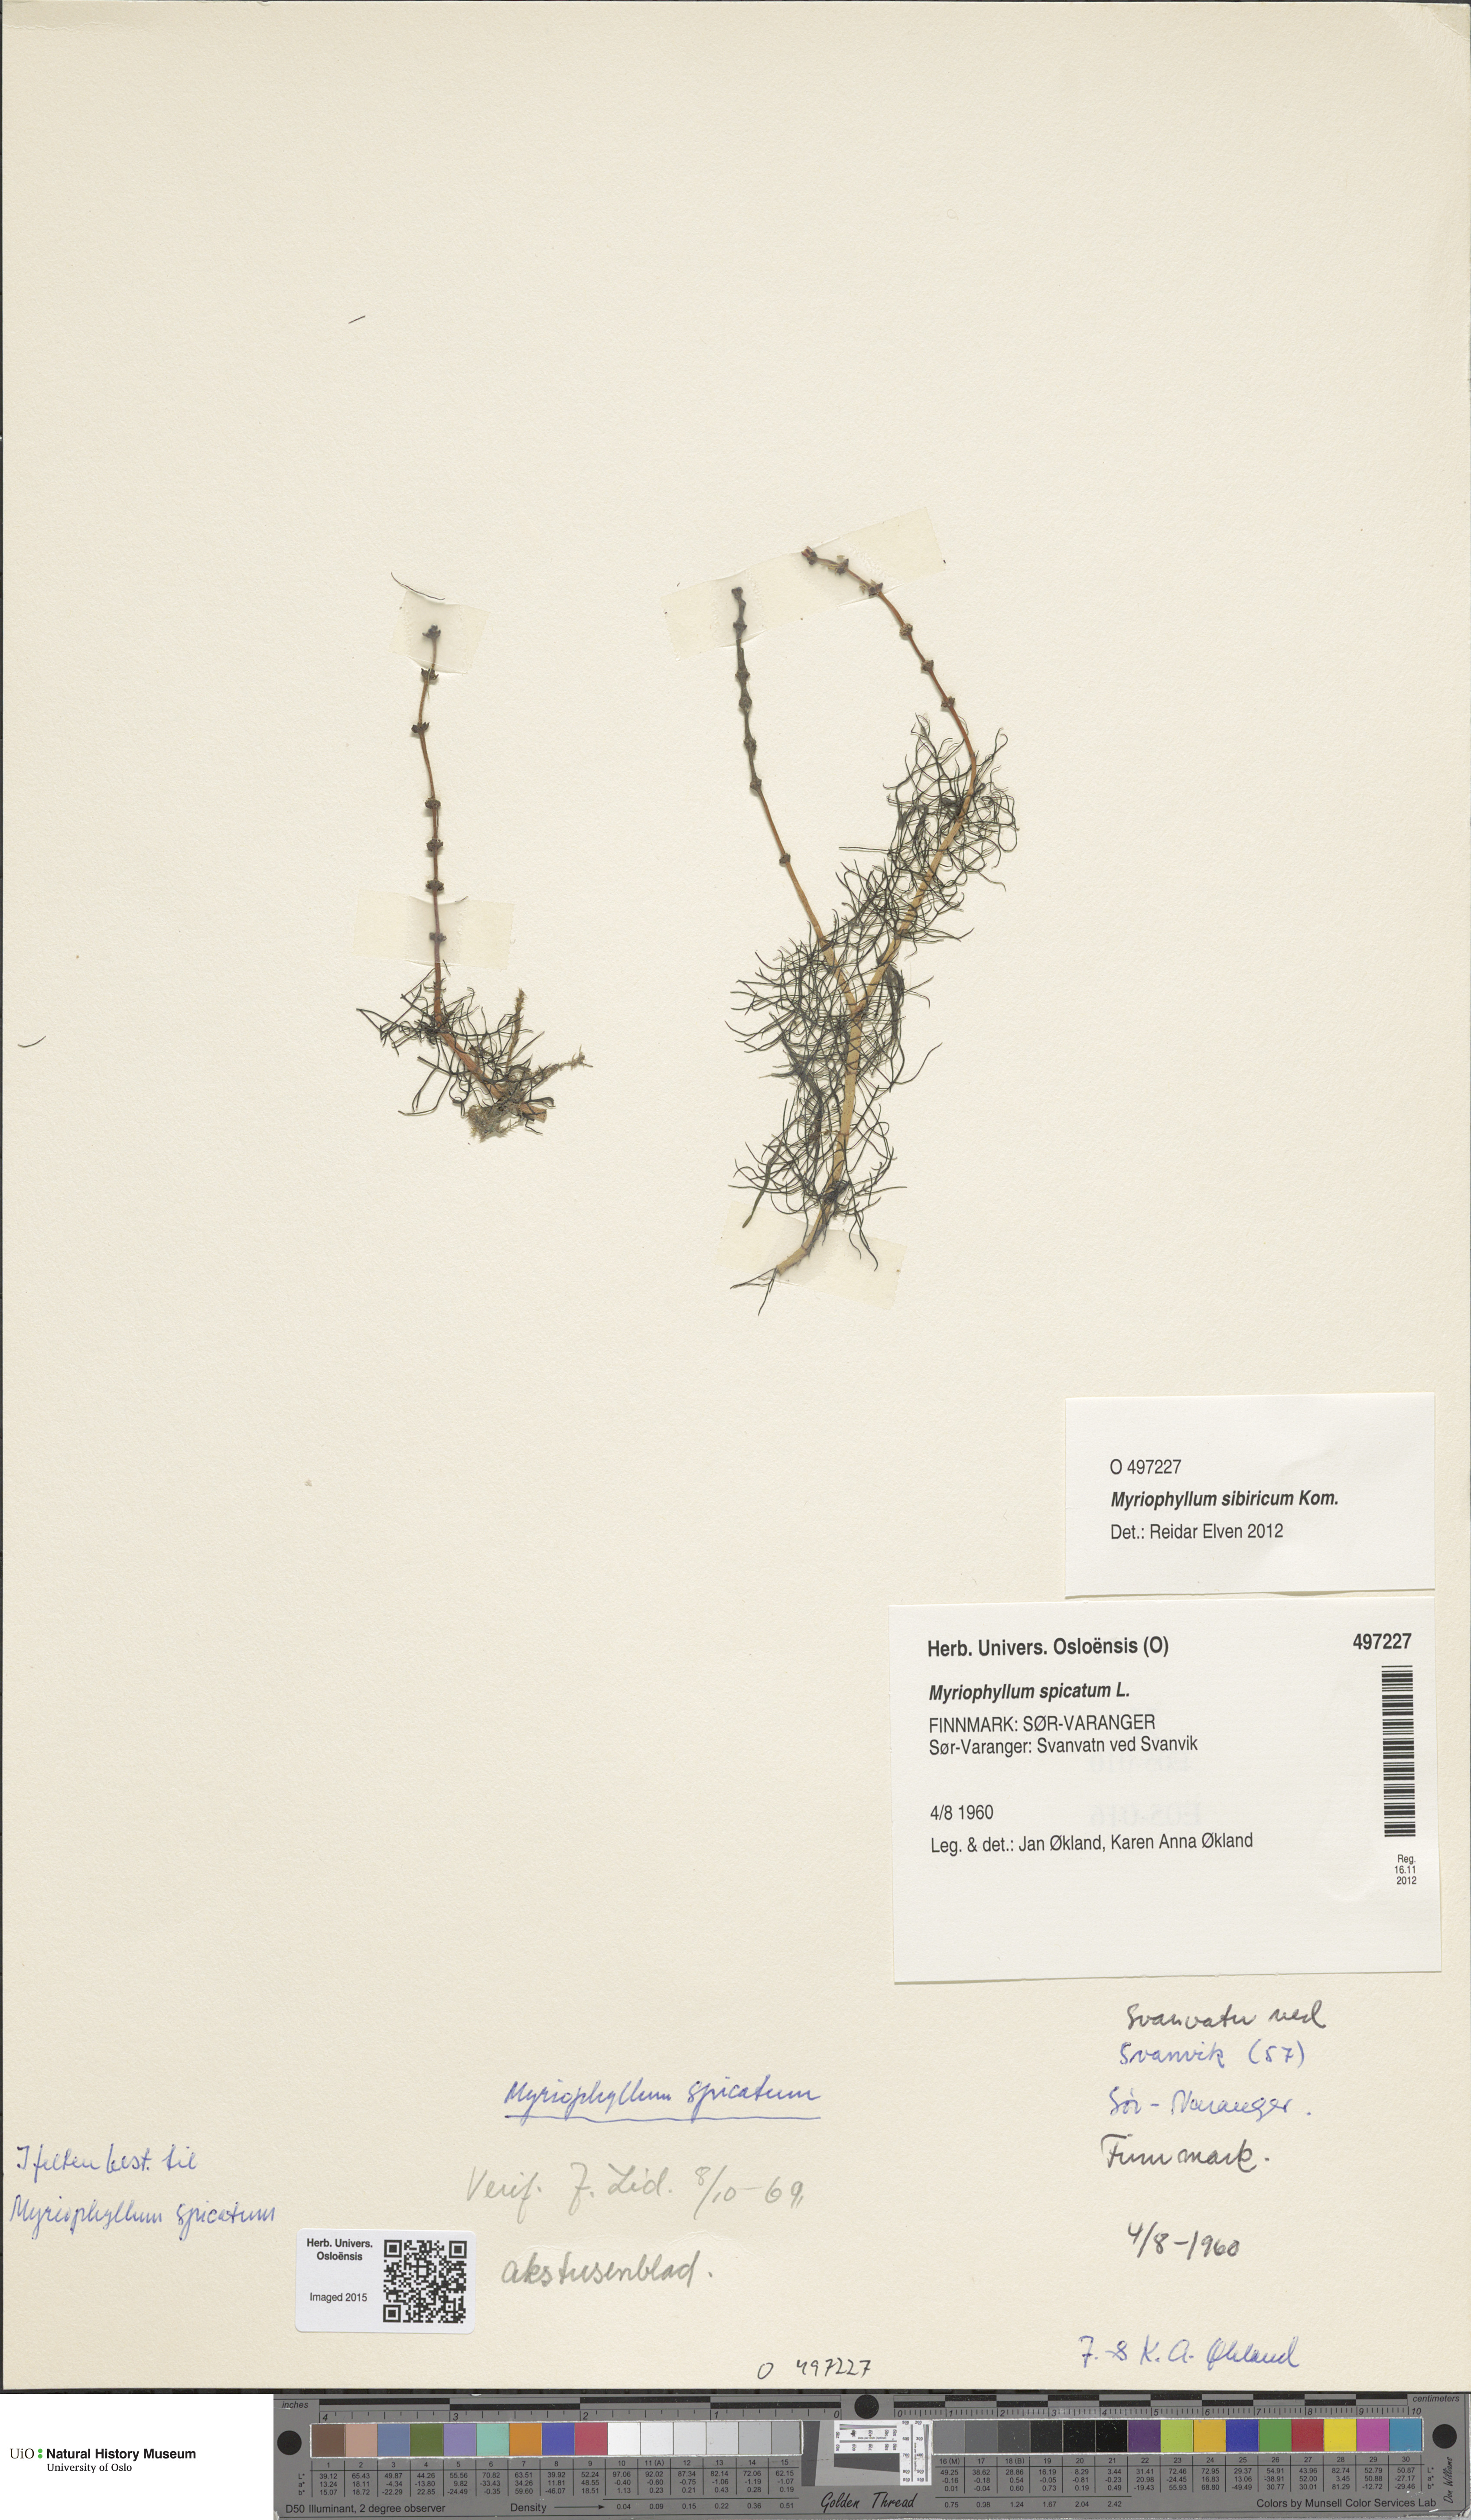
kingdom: Plantae
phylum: Tracheophyta
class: Magnoliopsida
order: Saxifragales
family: Haloragaceae
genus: Myriophyllum
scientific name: Myriophyllum spicatum
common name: Spiked water-milfoil
